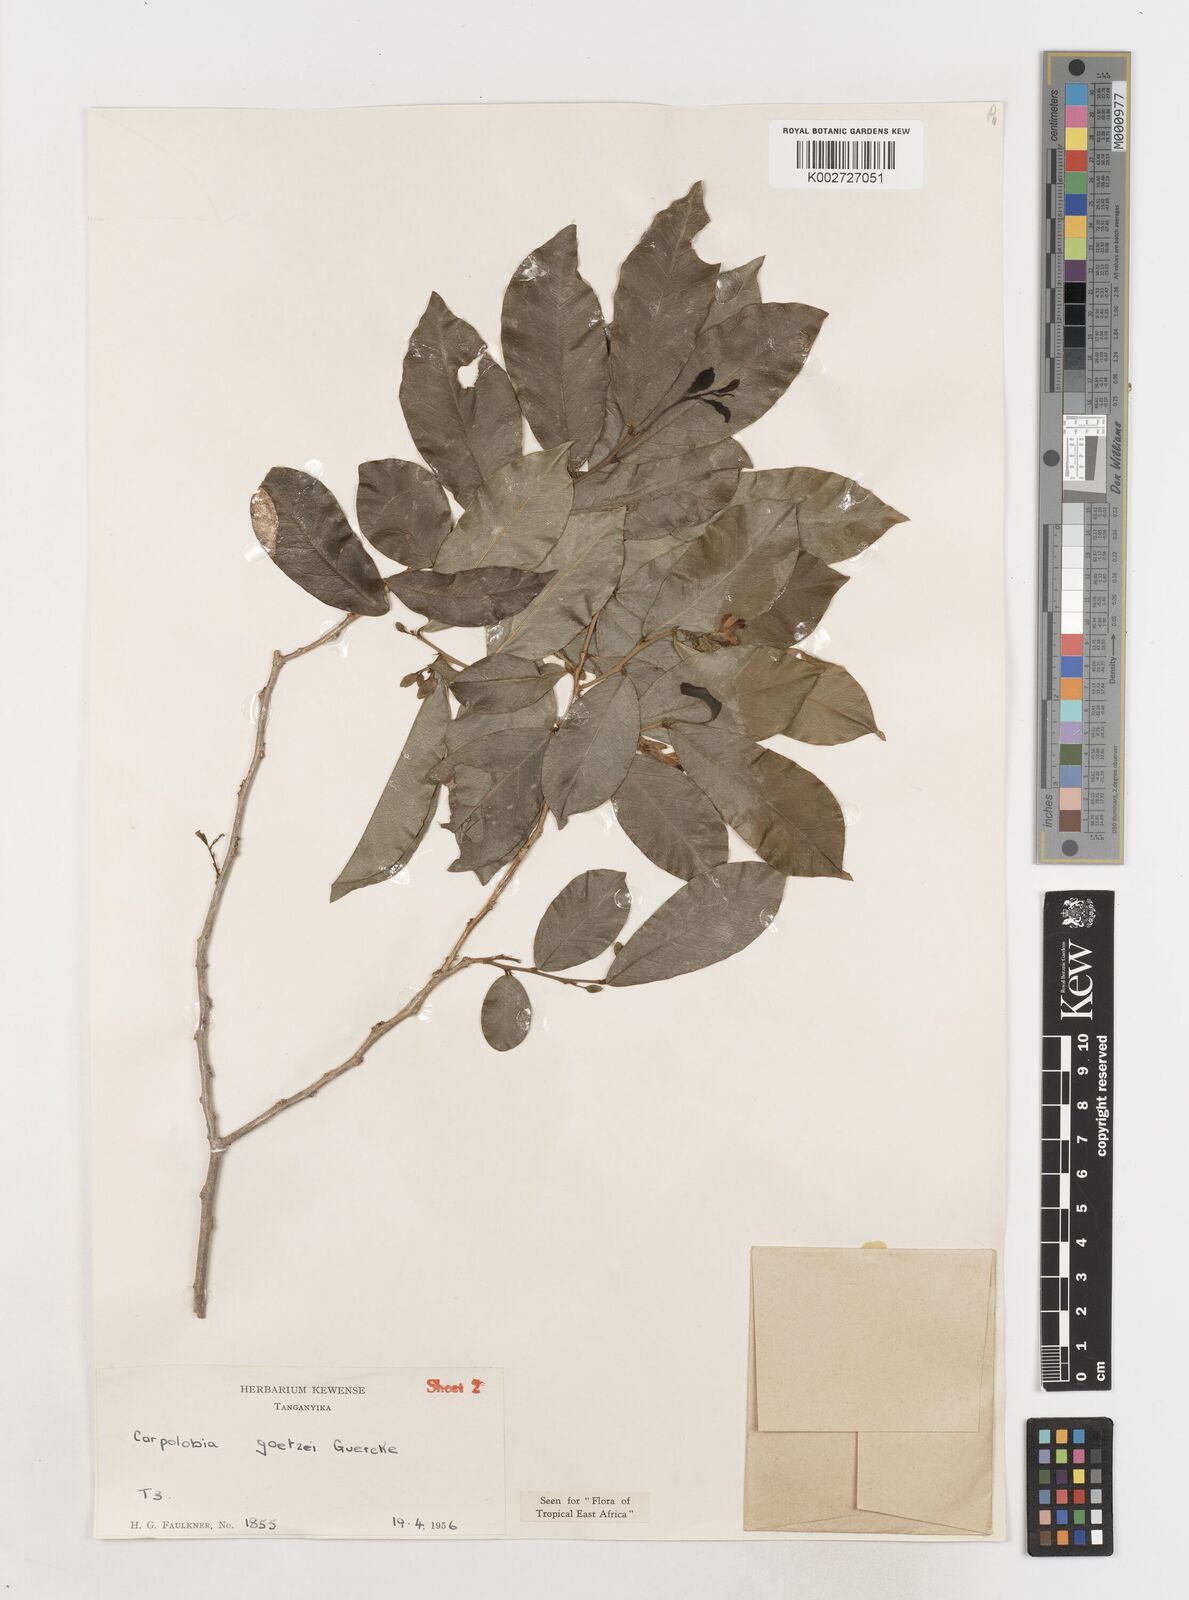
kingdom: Plantae
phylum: Tracheophyta
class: Magnoliopsida
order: Fabales
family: Polygalaceae
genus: Carpolobia
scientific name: Carpolobia goetzei
